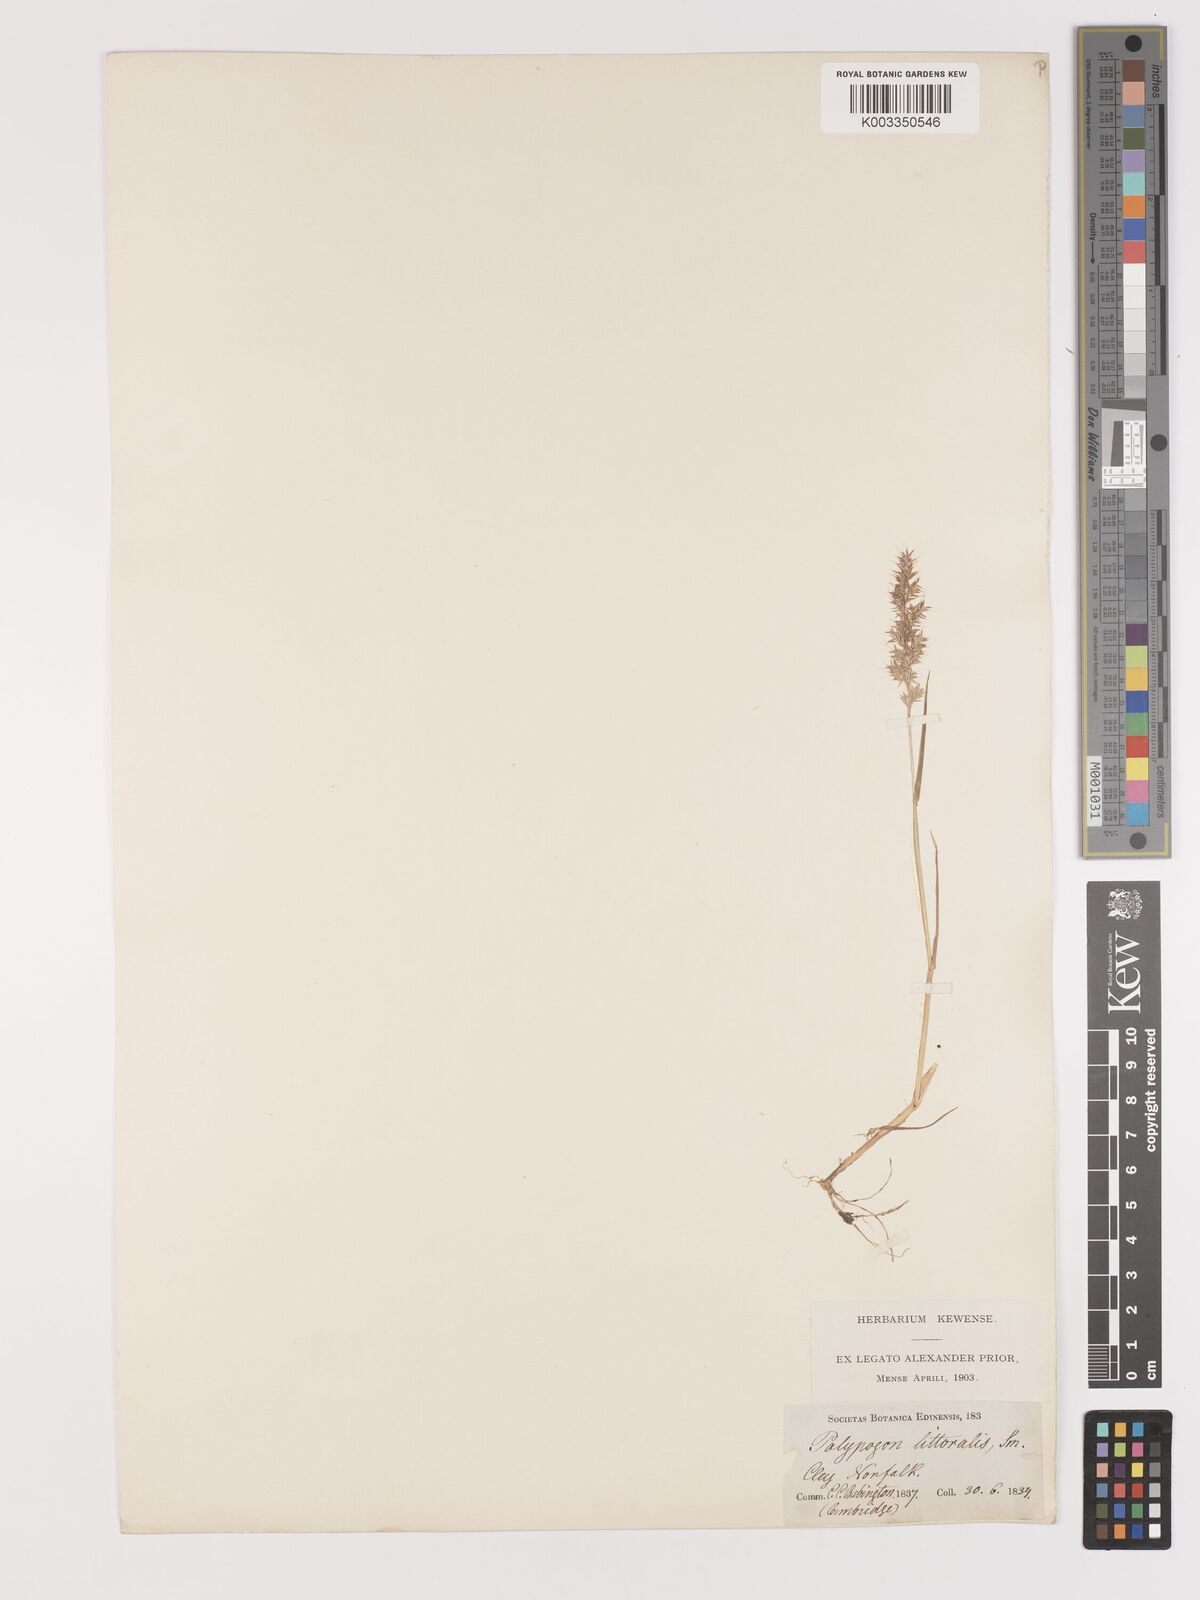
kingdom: Plantae
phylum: Tracheophyta
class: Liliopsida
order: Poales
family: Poaceae
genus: Agropogon
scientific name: Agropogon lutosus
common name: Coast agropogon
